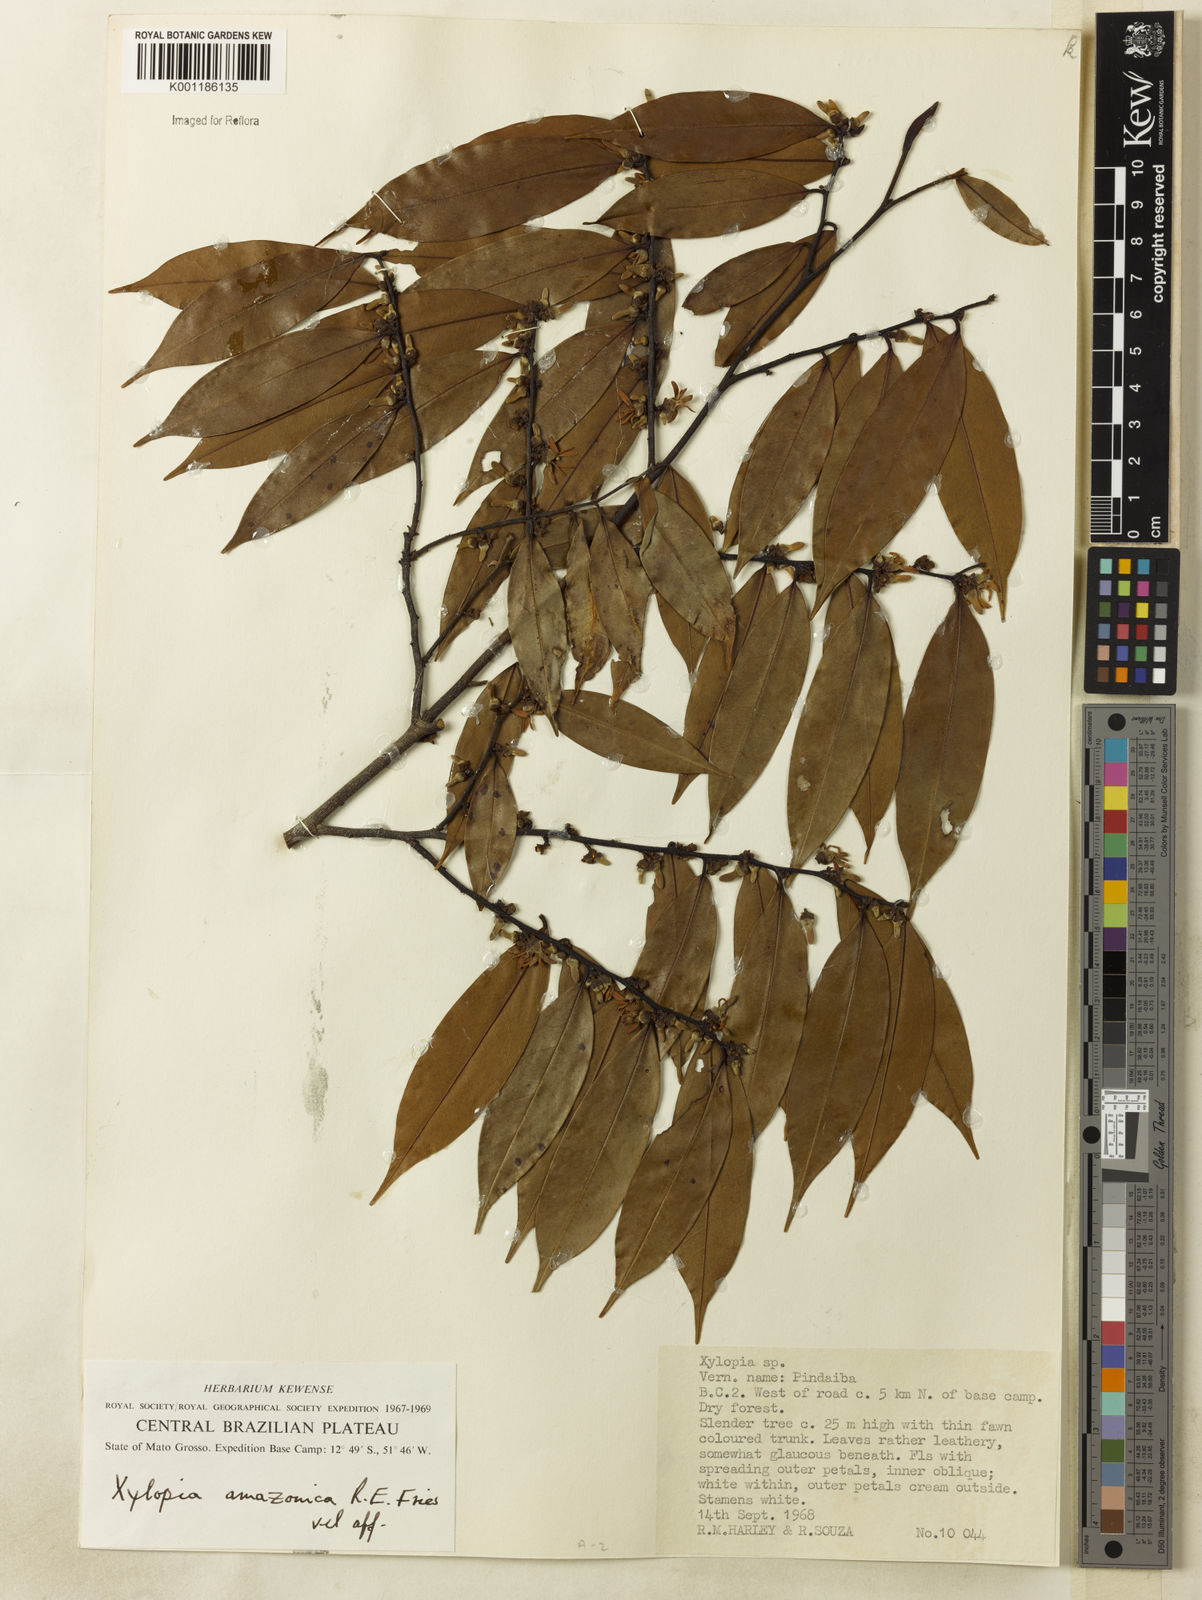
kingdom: Plantae
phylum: Tracheophyta
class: Magnoliopsida
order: Magnoliales
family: Annonaceae
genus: Xylopia
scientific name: Xylopia amazonica
